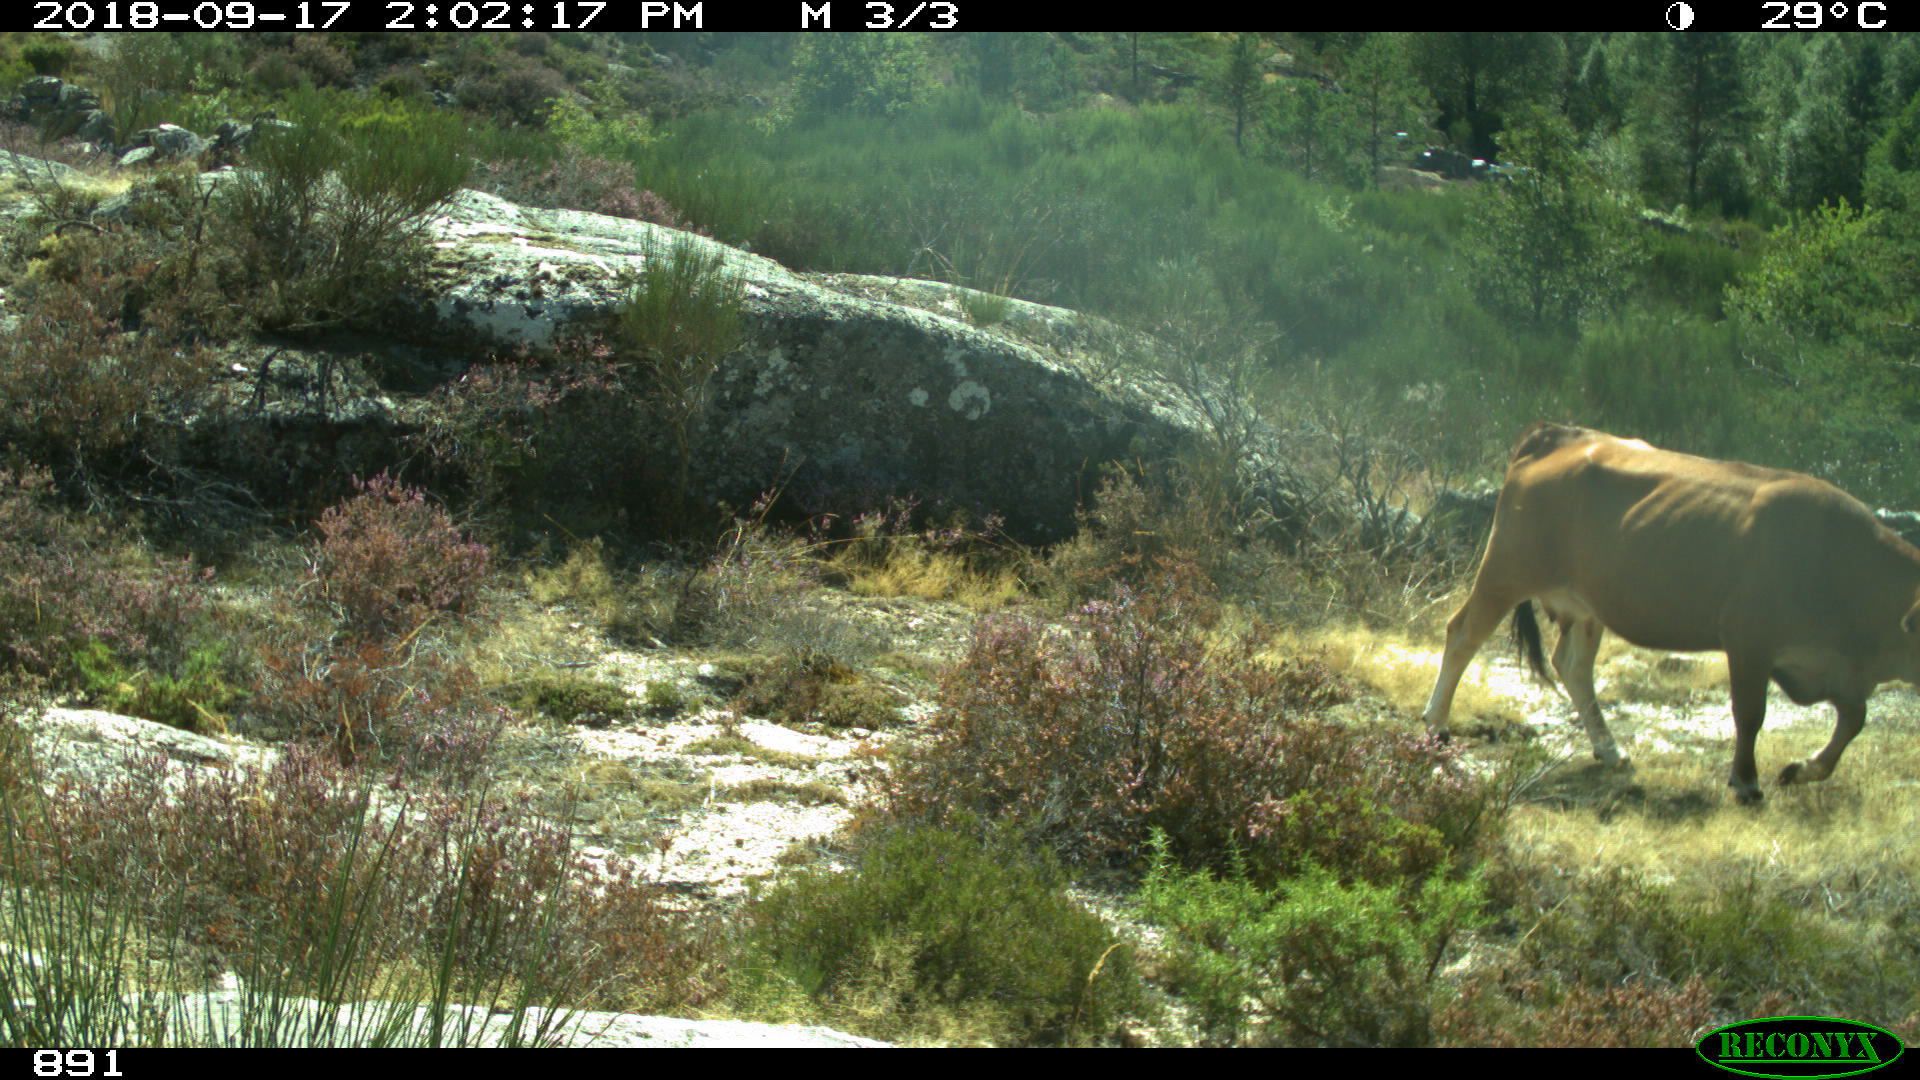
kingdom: Animalia
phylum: Chordata
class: Mammalia
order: Artiodactyla
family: Bovidae
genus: Bos
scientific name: Bos taurus
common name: Domesticated cattle
